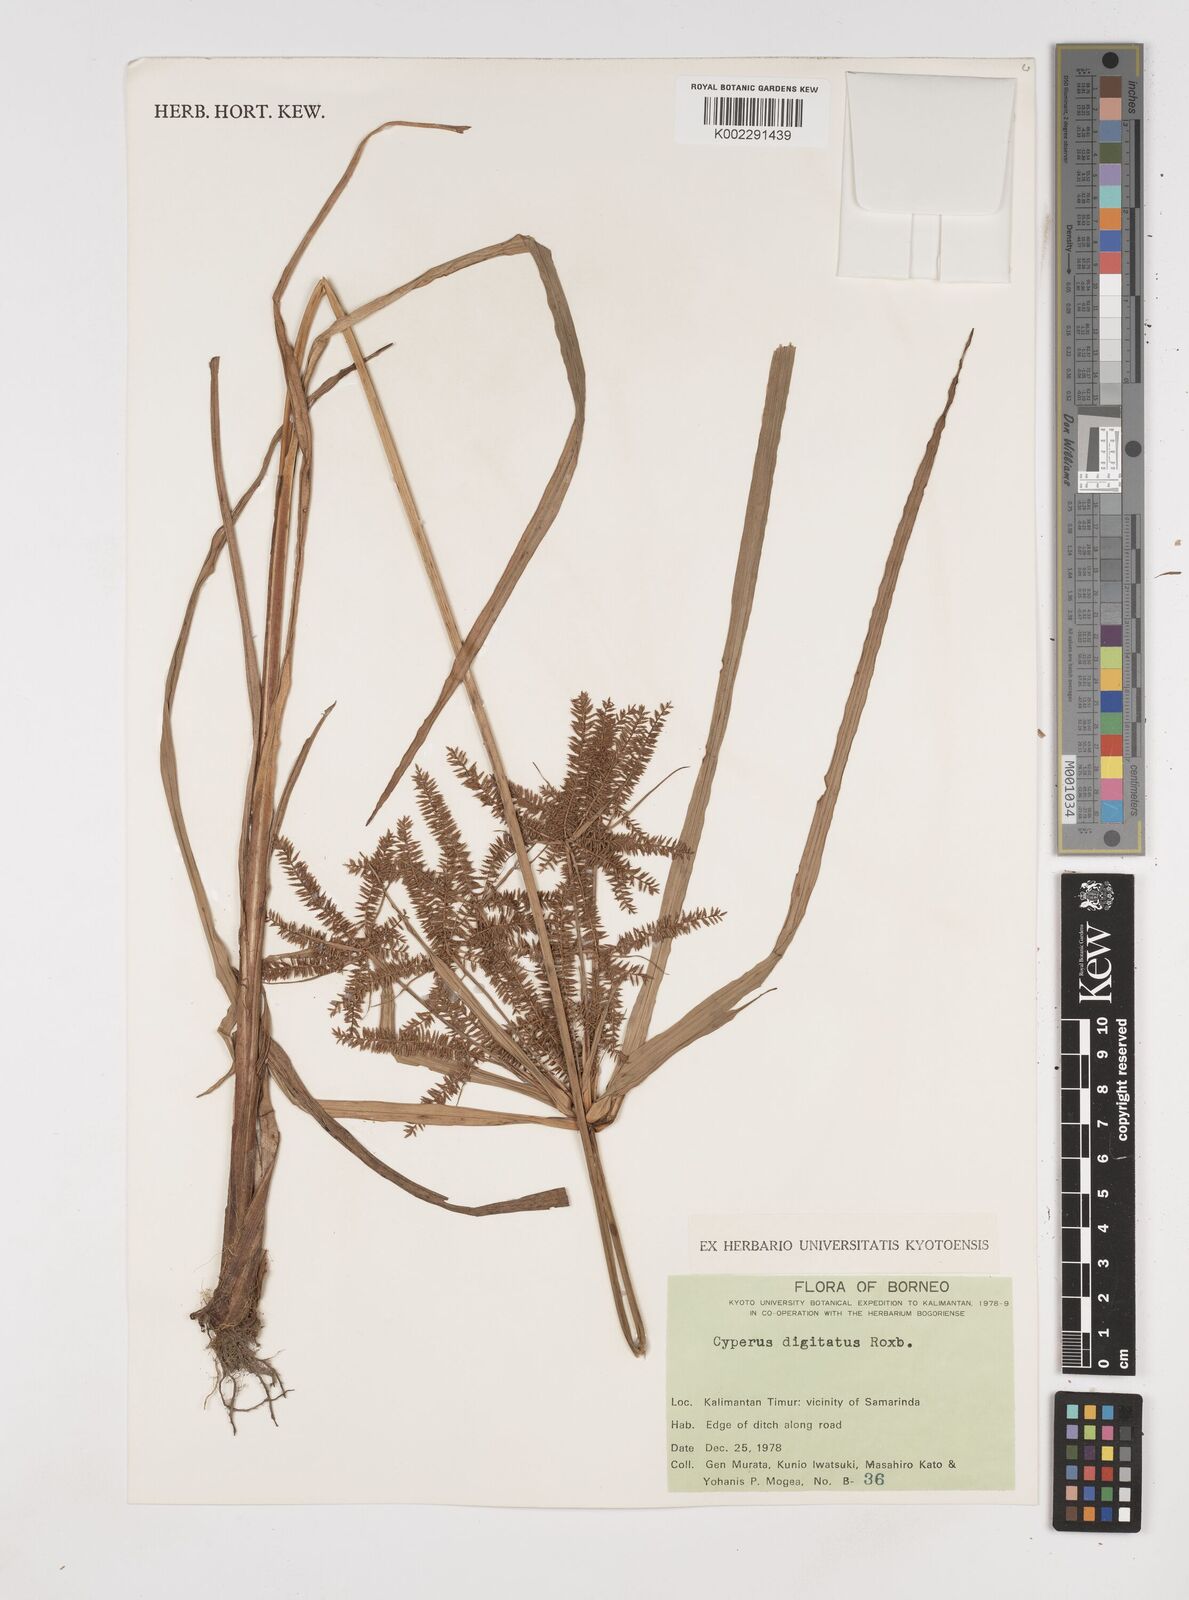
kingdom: Plantae
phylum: Tracheophyta
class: Liliopsida
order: Poales
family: Cyperaceae
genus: Cyperus
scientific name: Cyperus digitatus
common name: Finger flatsedge
